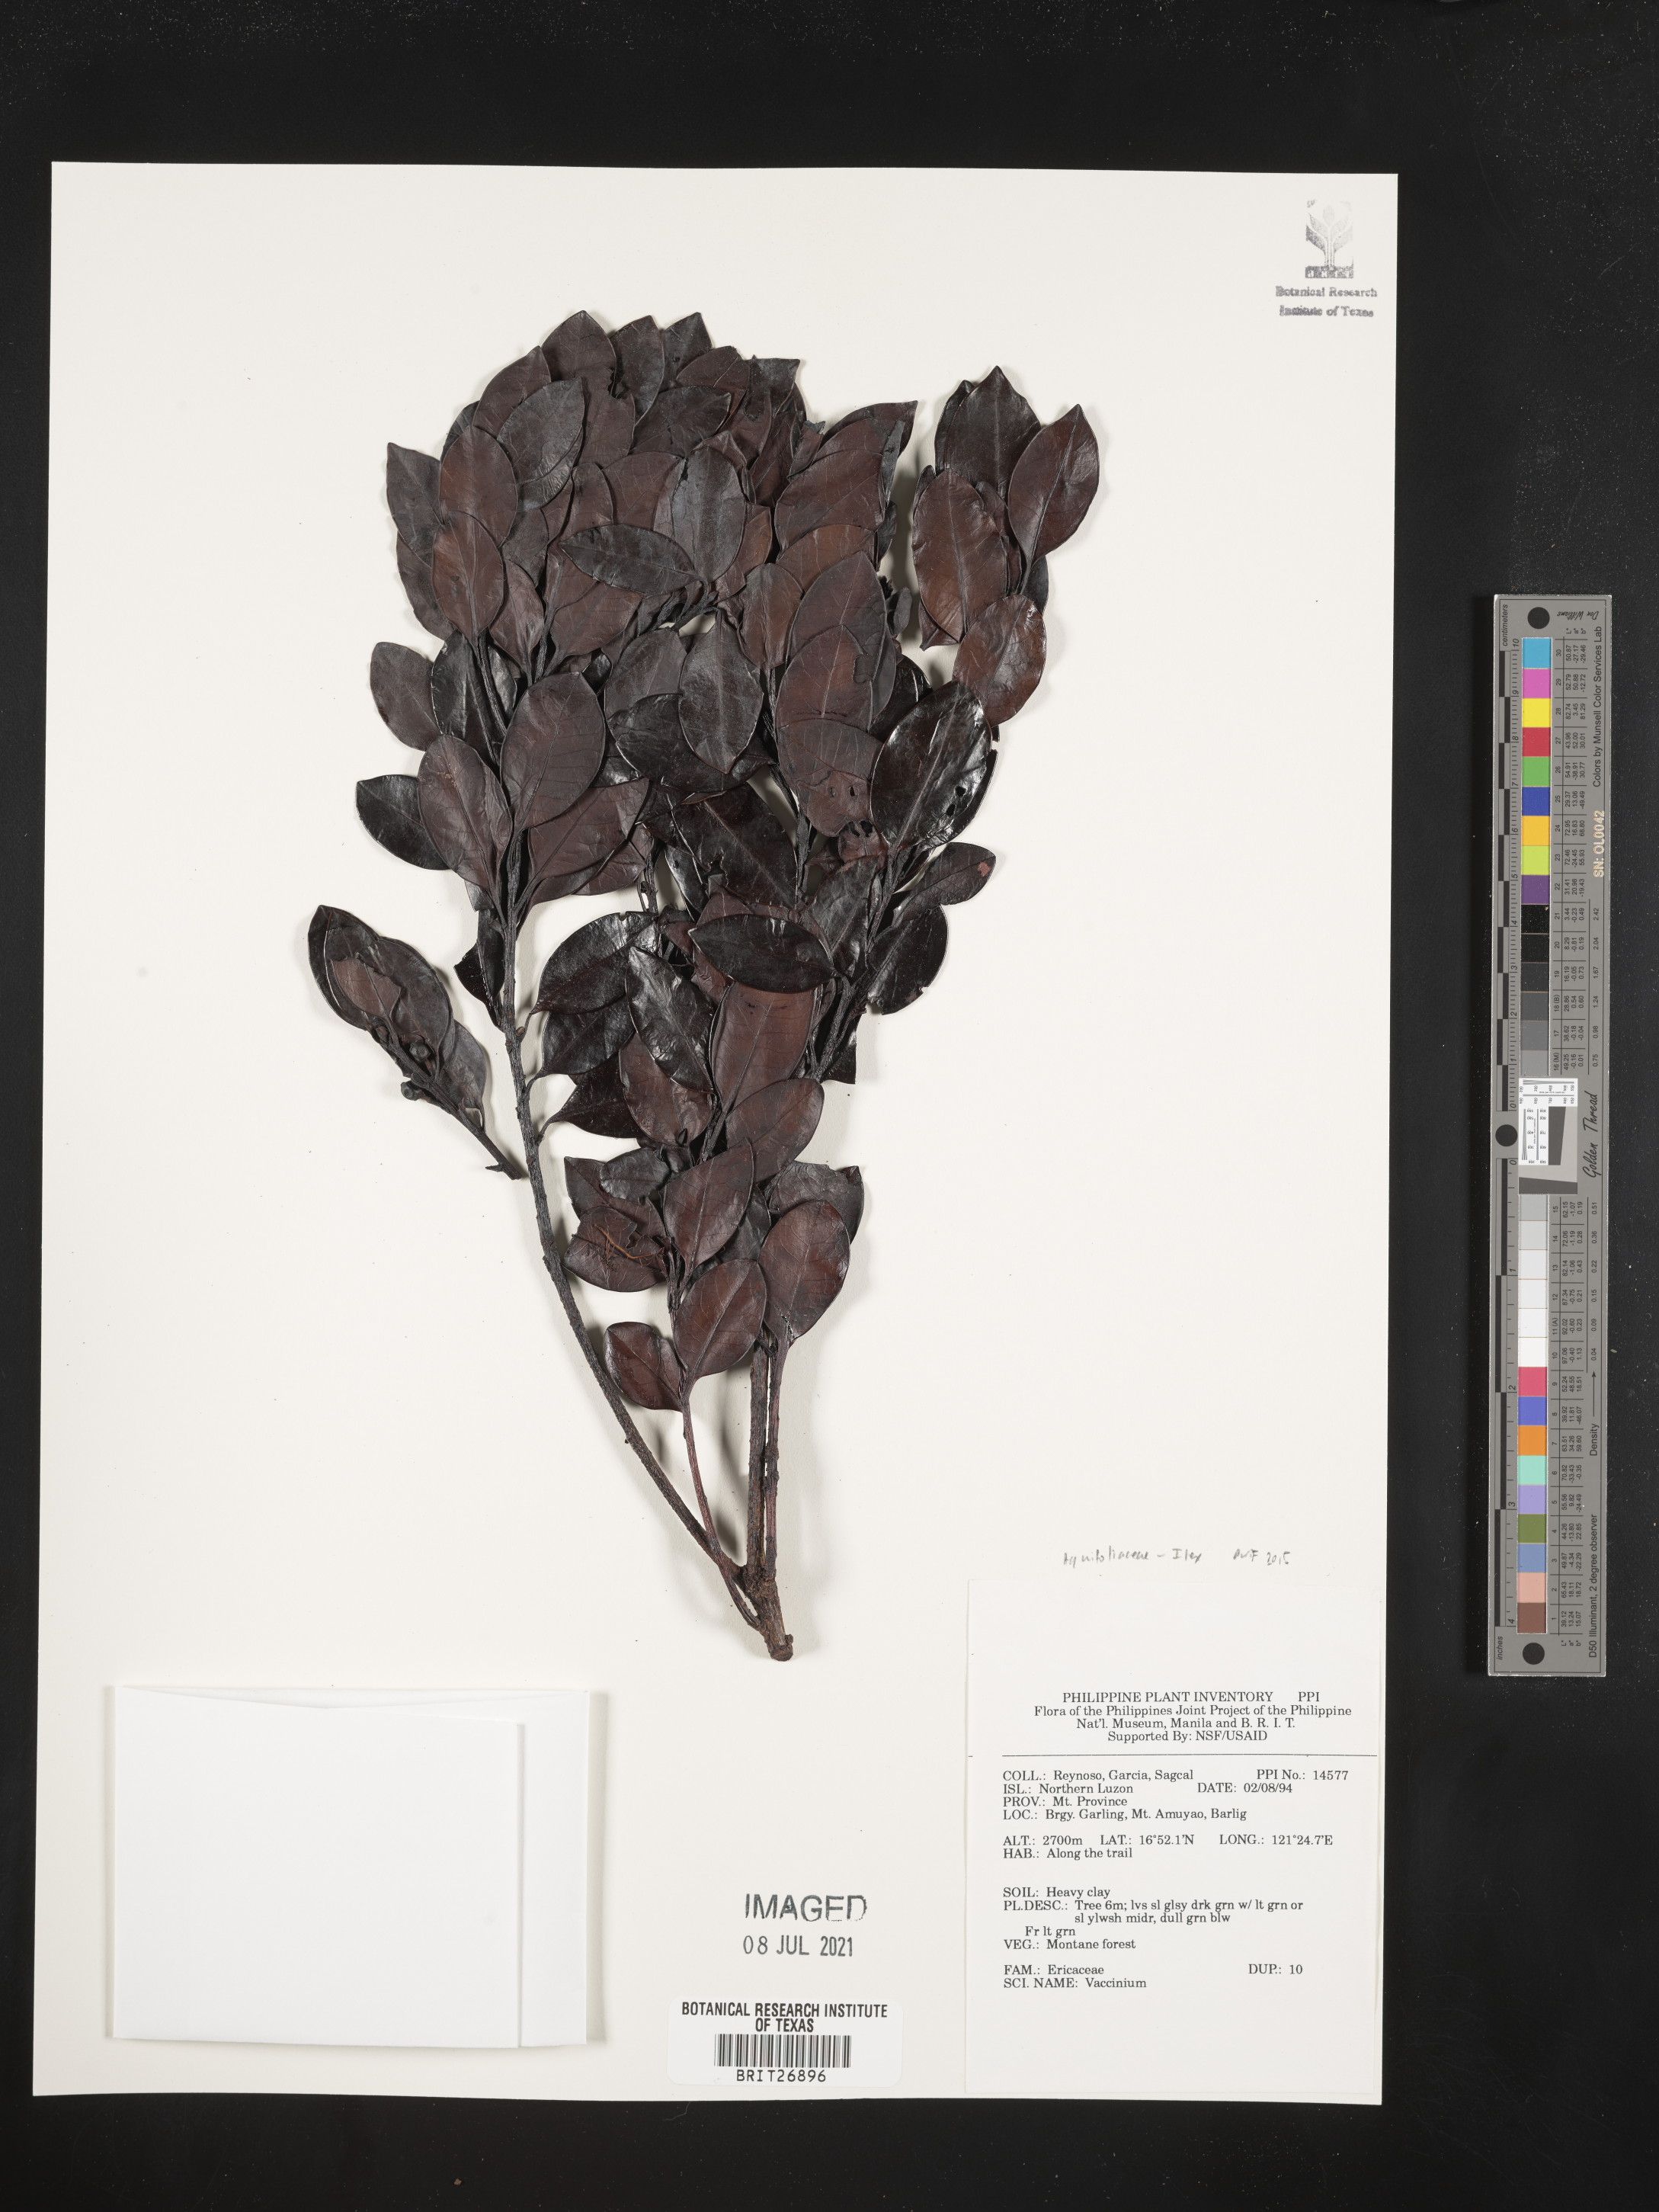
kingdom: Plantae
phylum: Tracheophyta
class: Magnoliopsida
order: Ericales
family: Ericaceae
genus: Vaccinium
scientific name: Vaccinium
